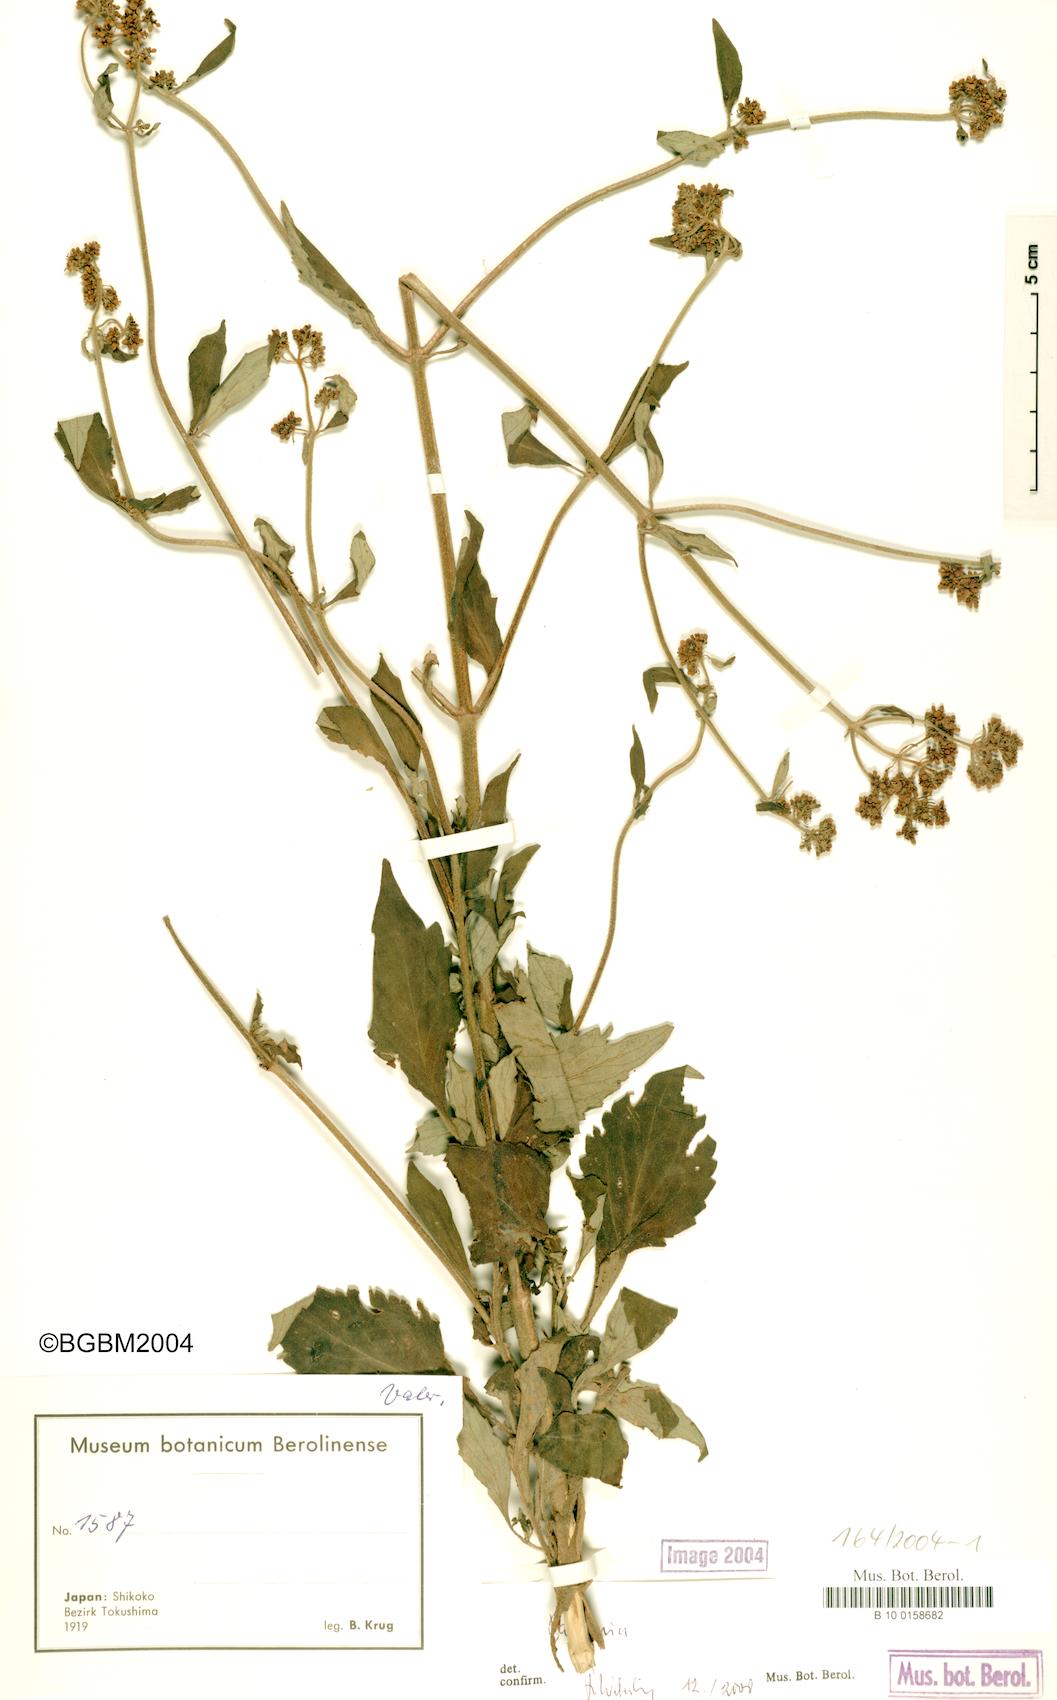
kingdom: Plantae
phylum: Tracheophyta
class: Magnoliopsida
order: Dipsacales
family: Caprifoliaceae
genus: Patrinia
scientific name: Patrinia
